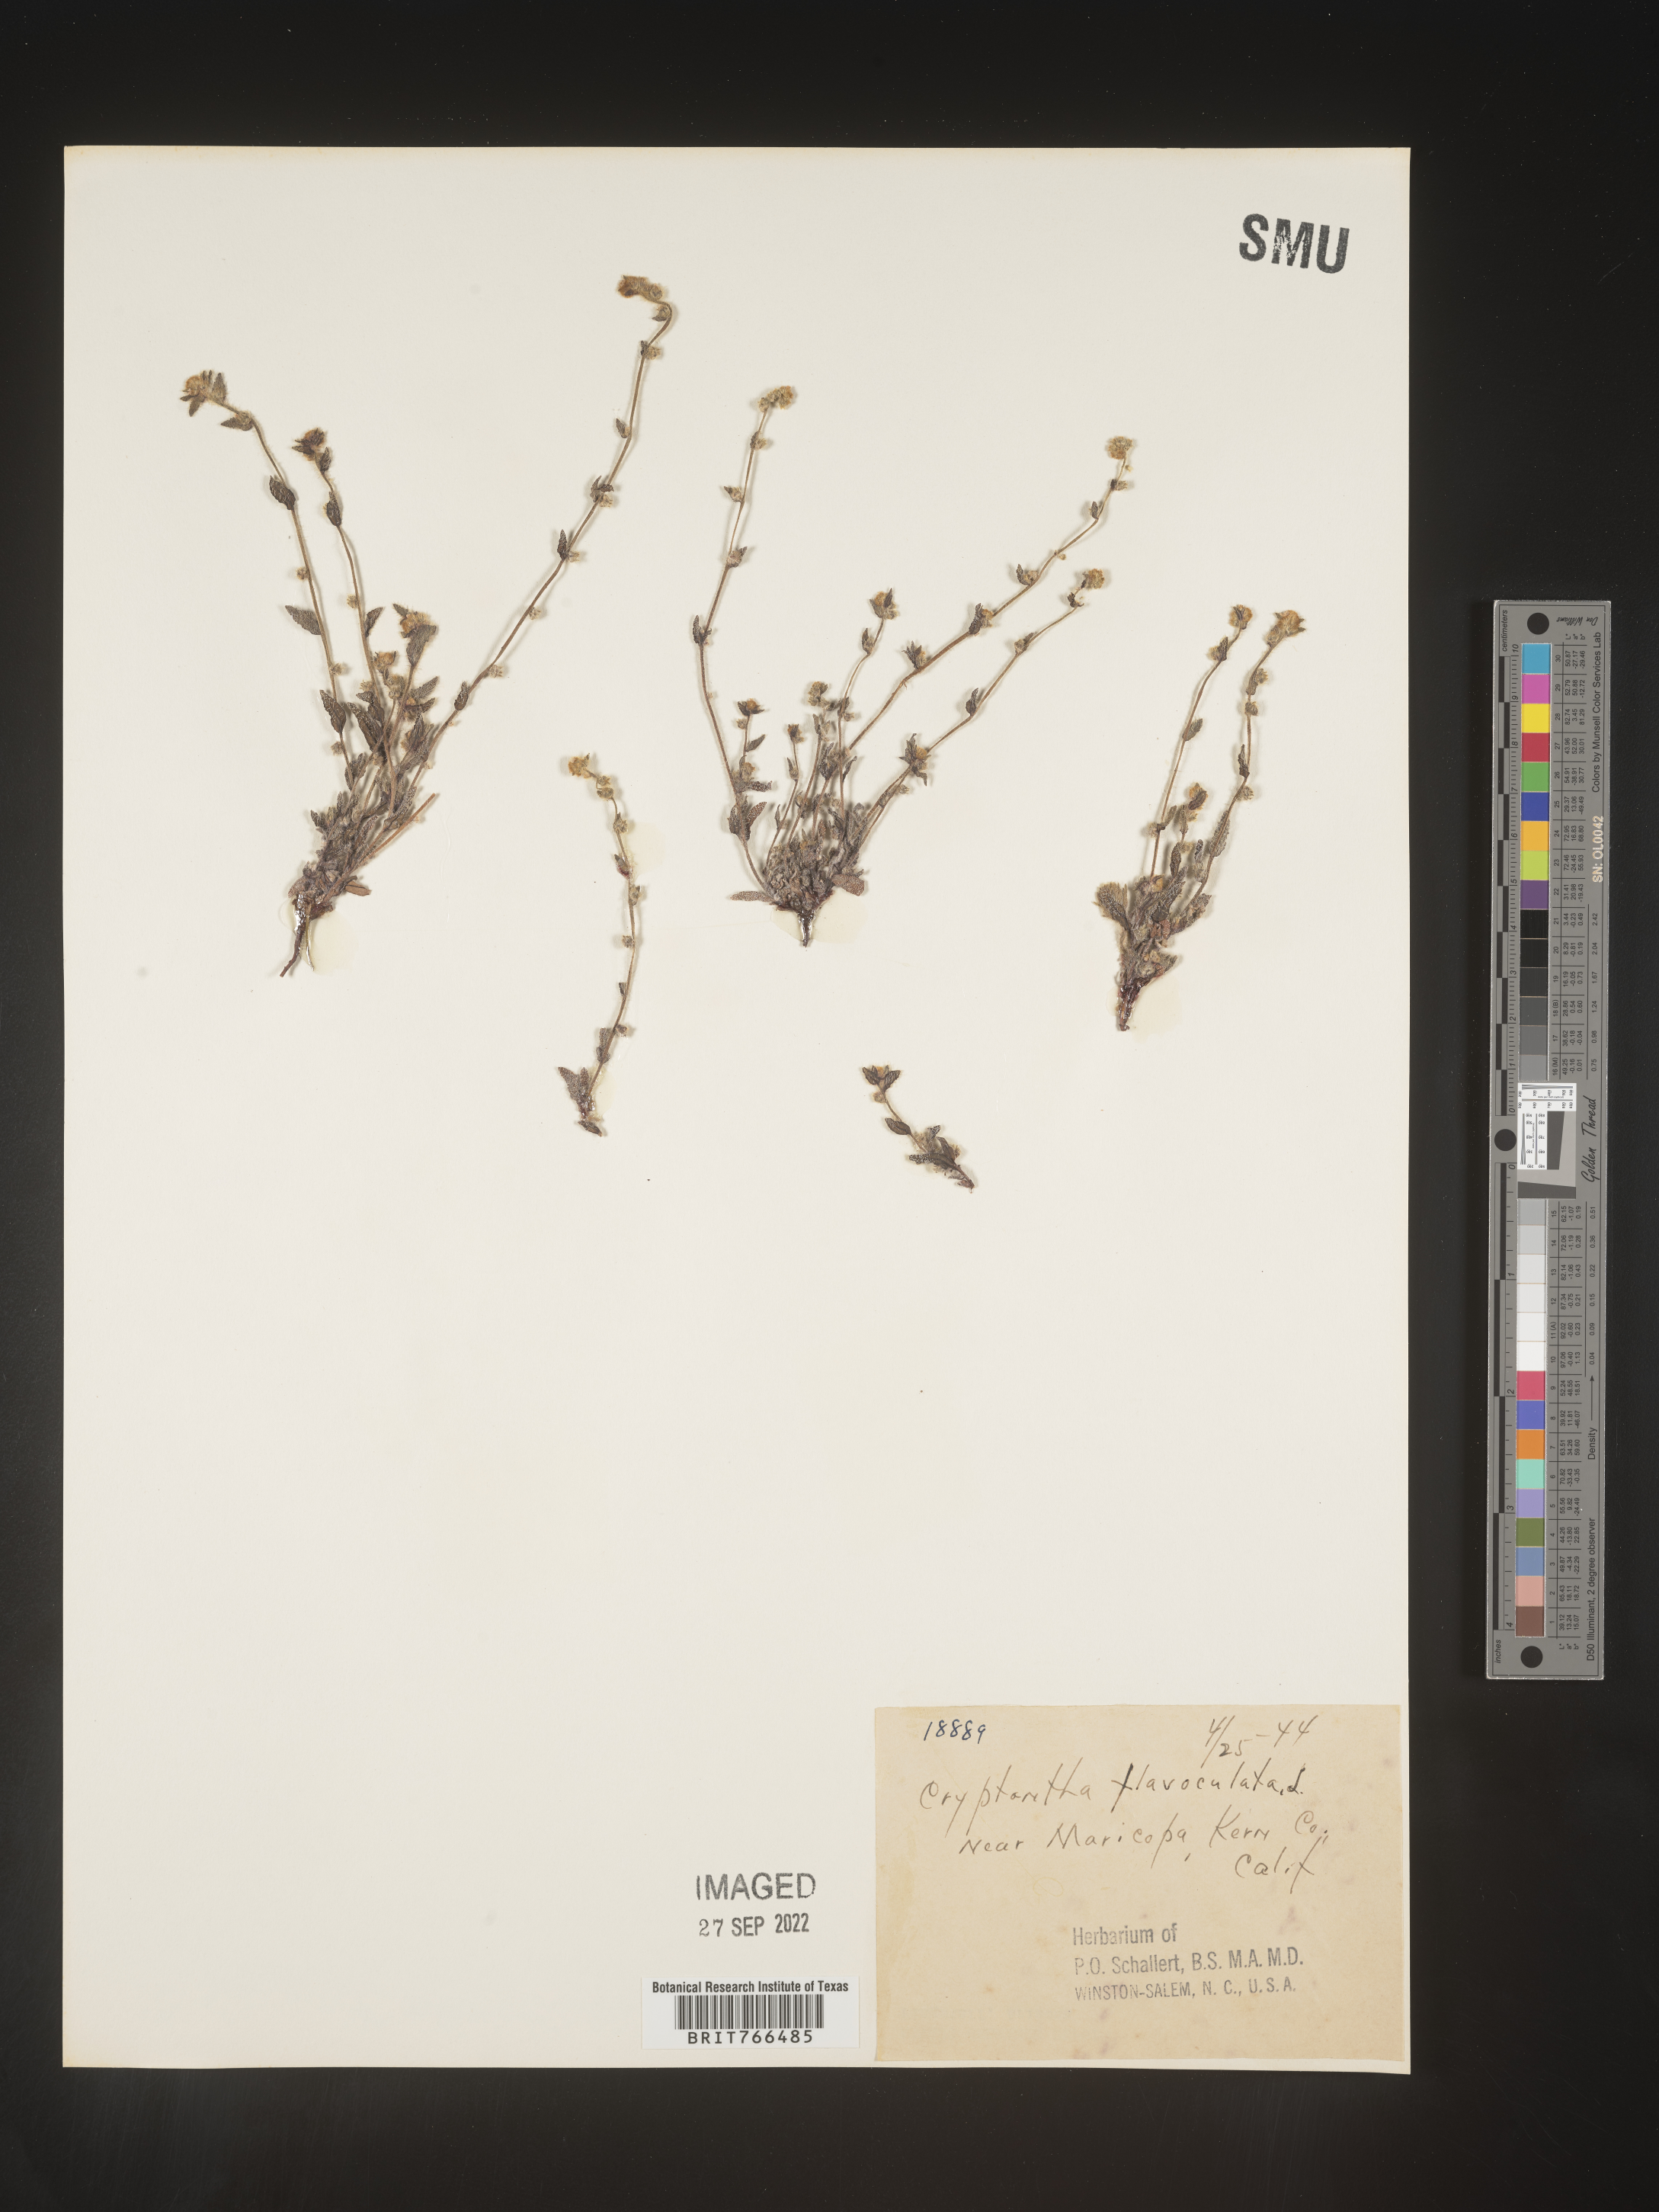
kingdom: Plantae
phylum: Tracheophyta
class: Magnoliopsida
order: Boraginales
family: Boraginaceae
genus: Oreocarya
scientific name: Oreocarya flavoculata
